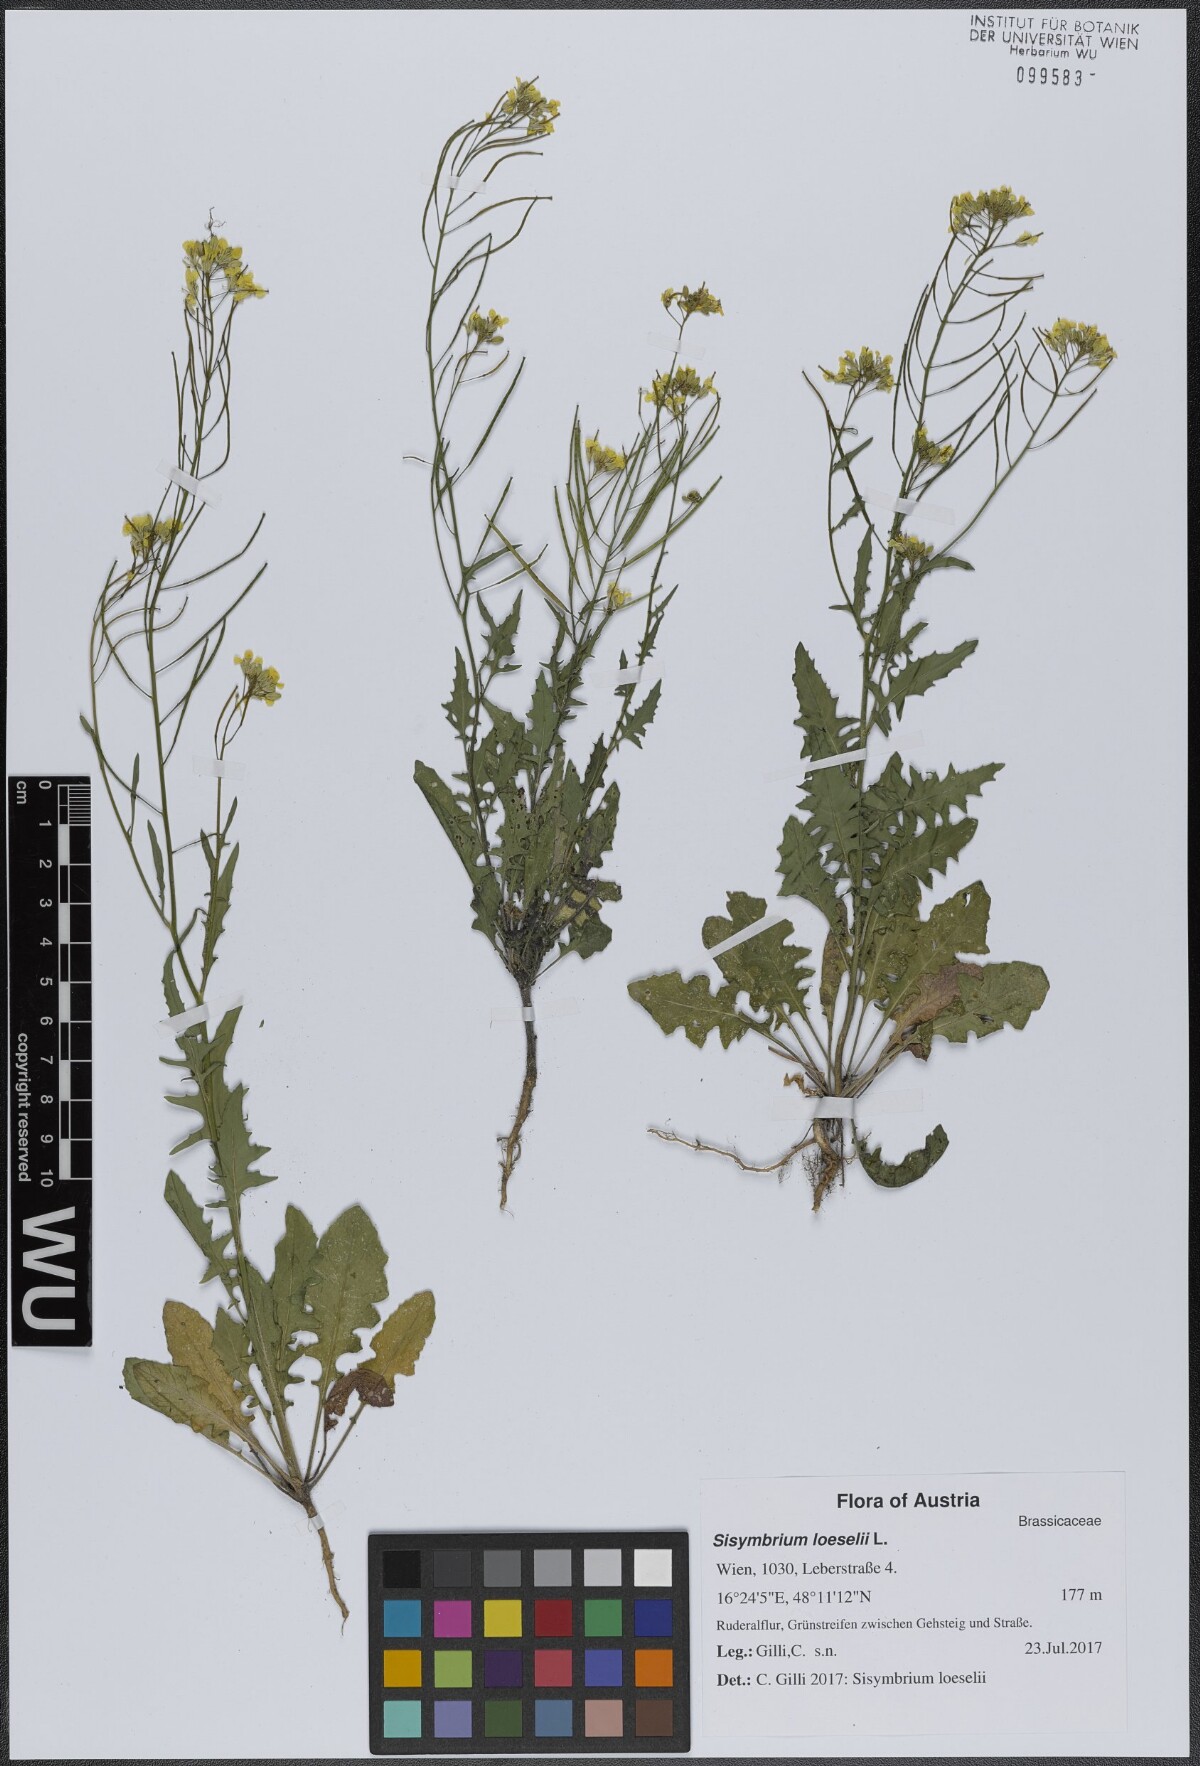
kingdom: Plantae
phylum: Tracheophyta
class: Magnoliopsida
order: Brassicales
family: Brassicaceae
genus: Sisymbrium
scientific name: Sisymbrium loeselii
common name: False london-rocket
